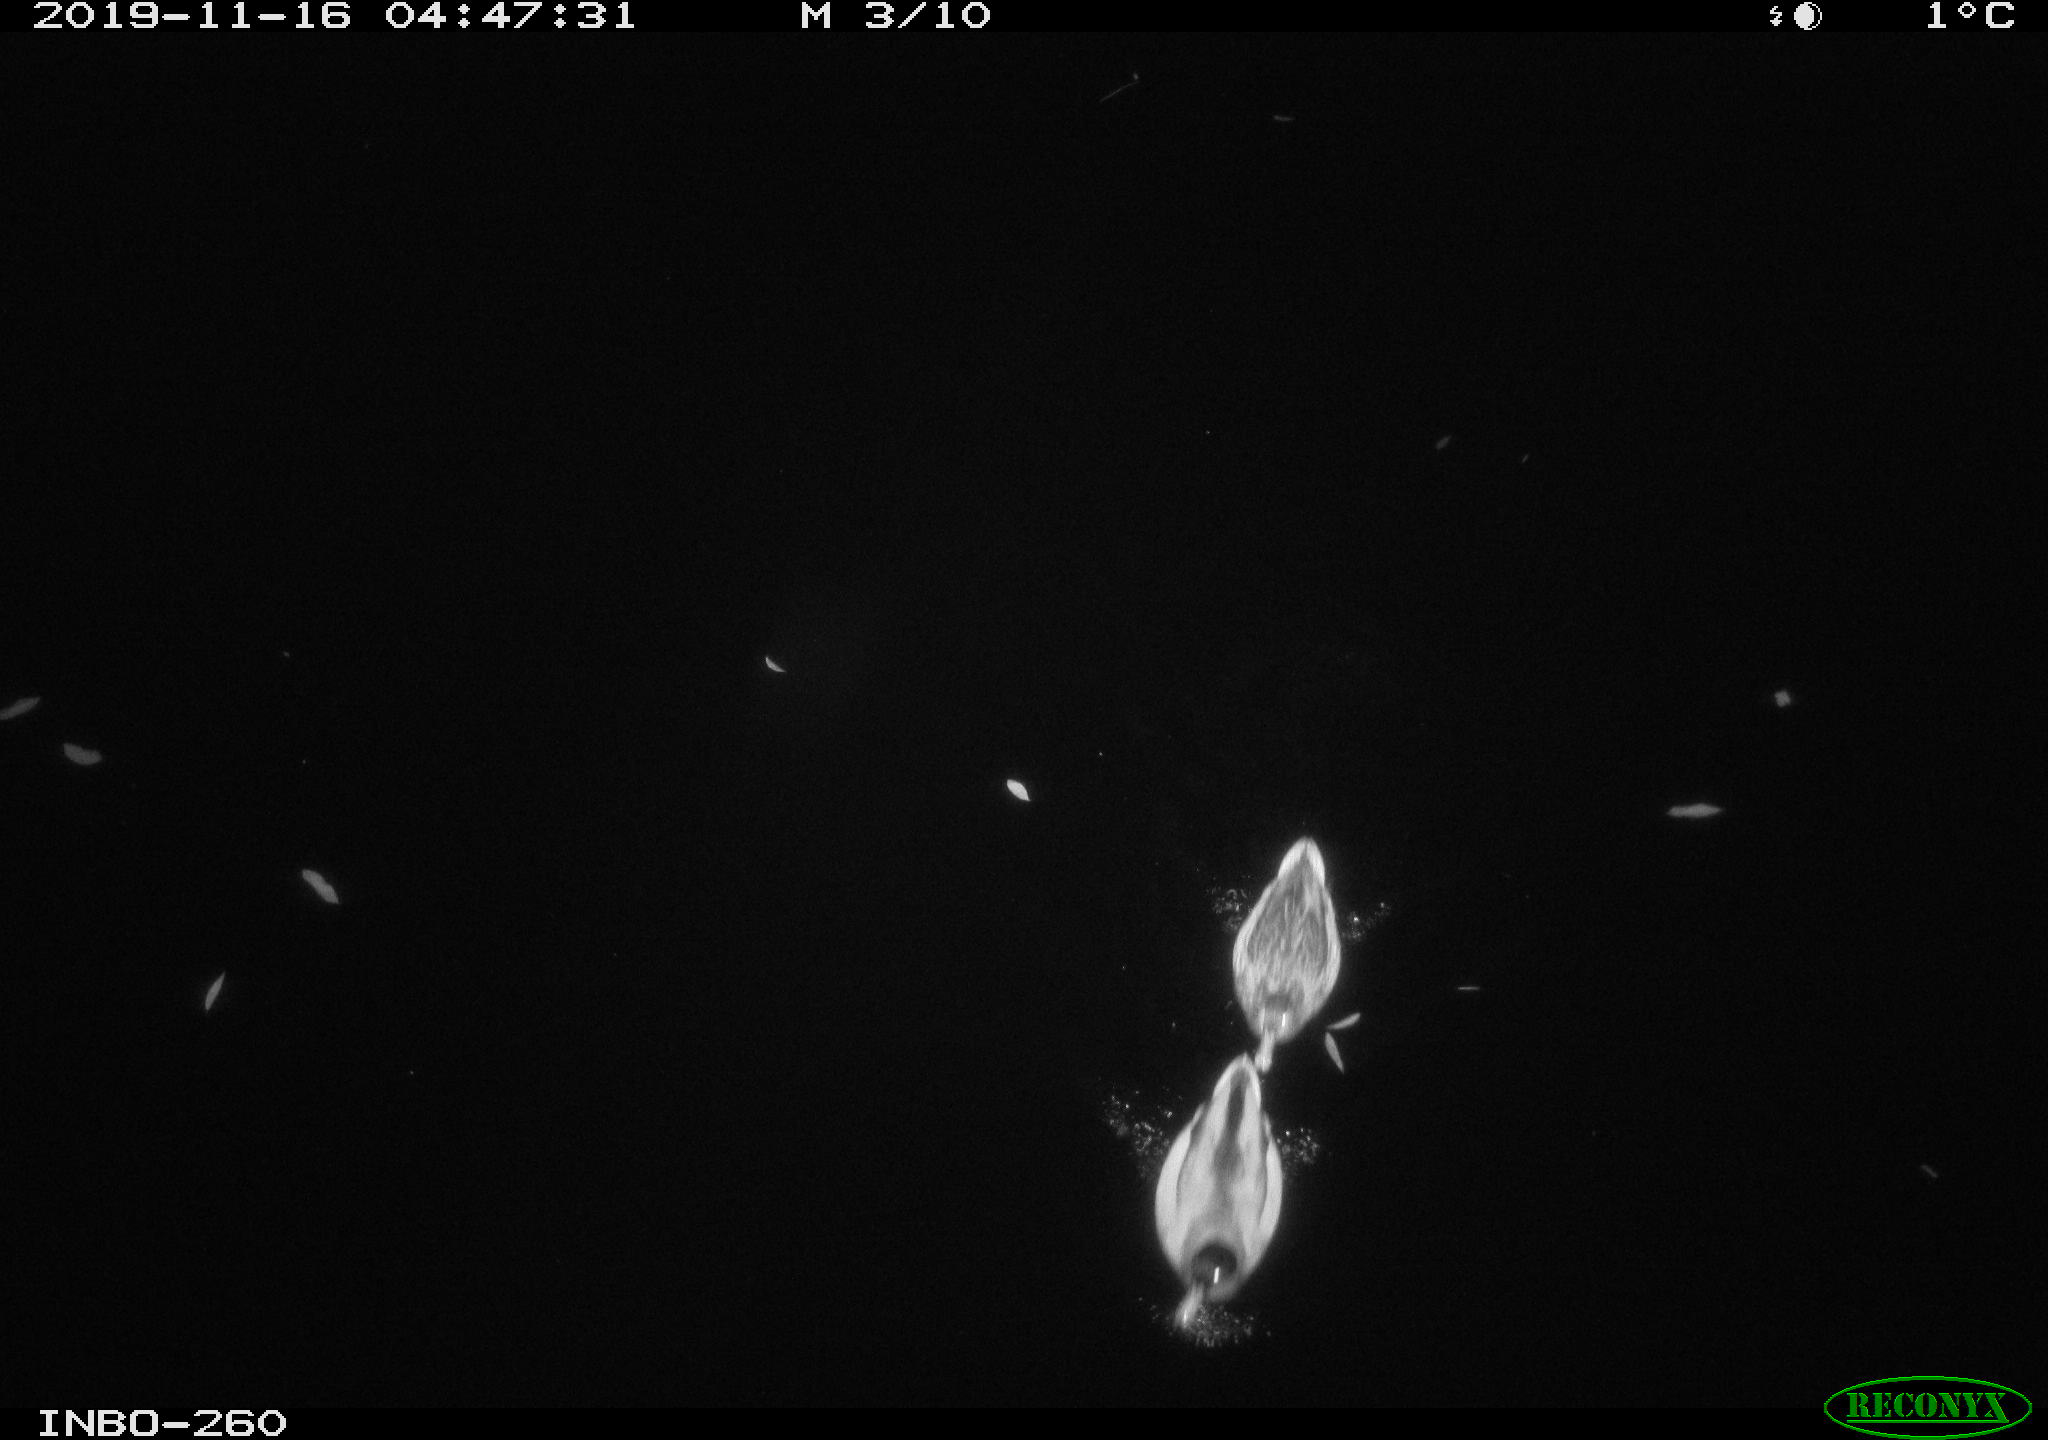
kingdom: Animalia
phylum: Chordata
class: Aves
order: Anseriformes
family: Anatidae
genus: Anas
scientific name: Anas platyrhynchos
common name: Mallard
